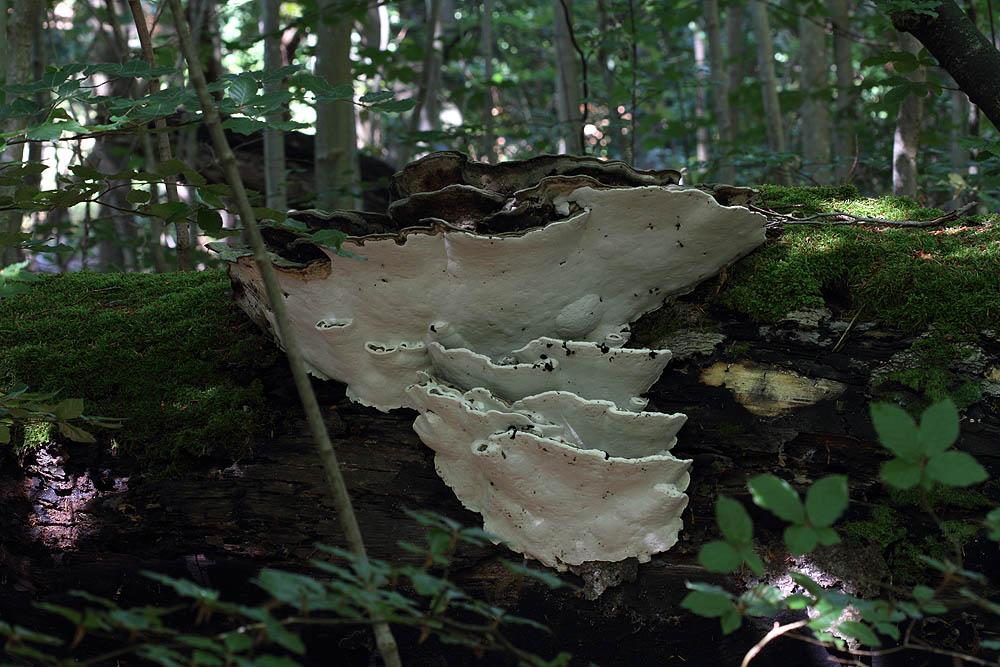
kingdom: Fungi
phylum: Basidiomycota
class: Agaricomycetes
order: Polyporales
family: Polyporaceae
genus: Ganoderma
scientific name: Ganoderma applanatum
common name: flad lakporesvamp
